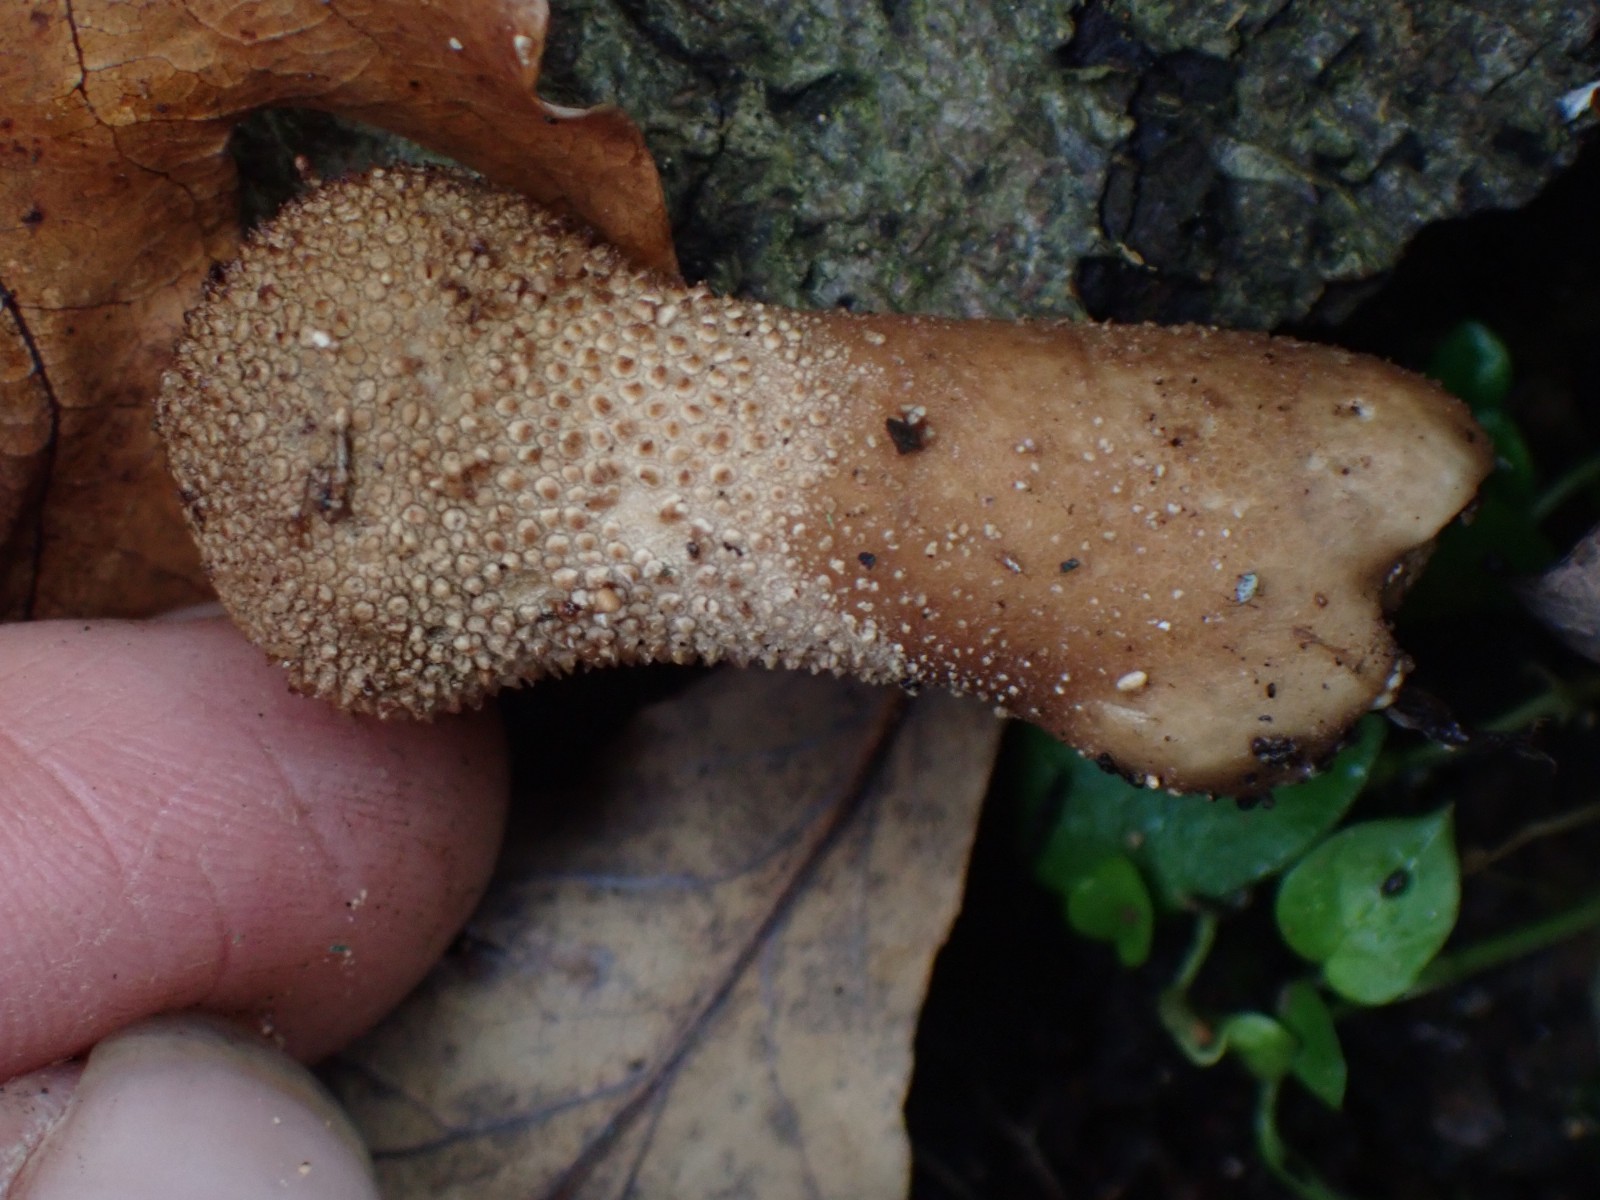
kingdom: Fungi
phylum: Basidiomycota
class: Agaricomycetes
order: Agaricales
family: Lycoperdaceae
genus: Lycoperdon
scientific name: Lycoperdon perlatum
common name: krystal-støvbold
